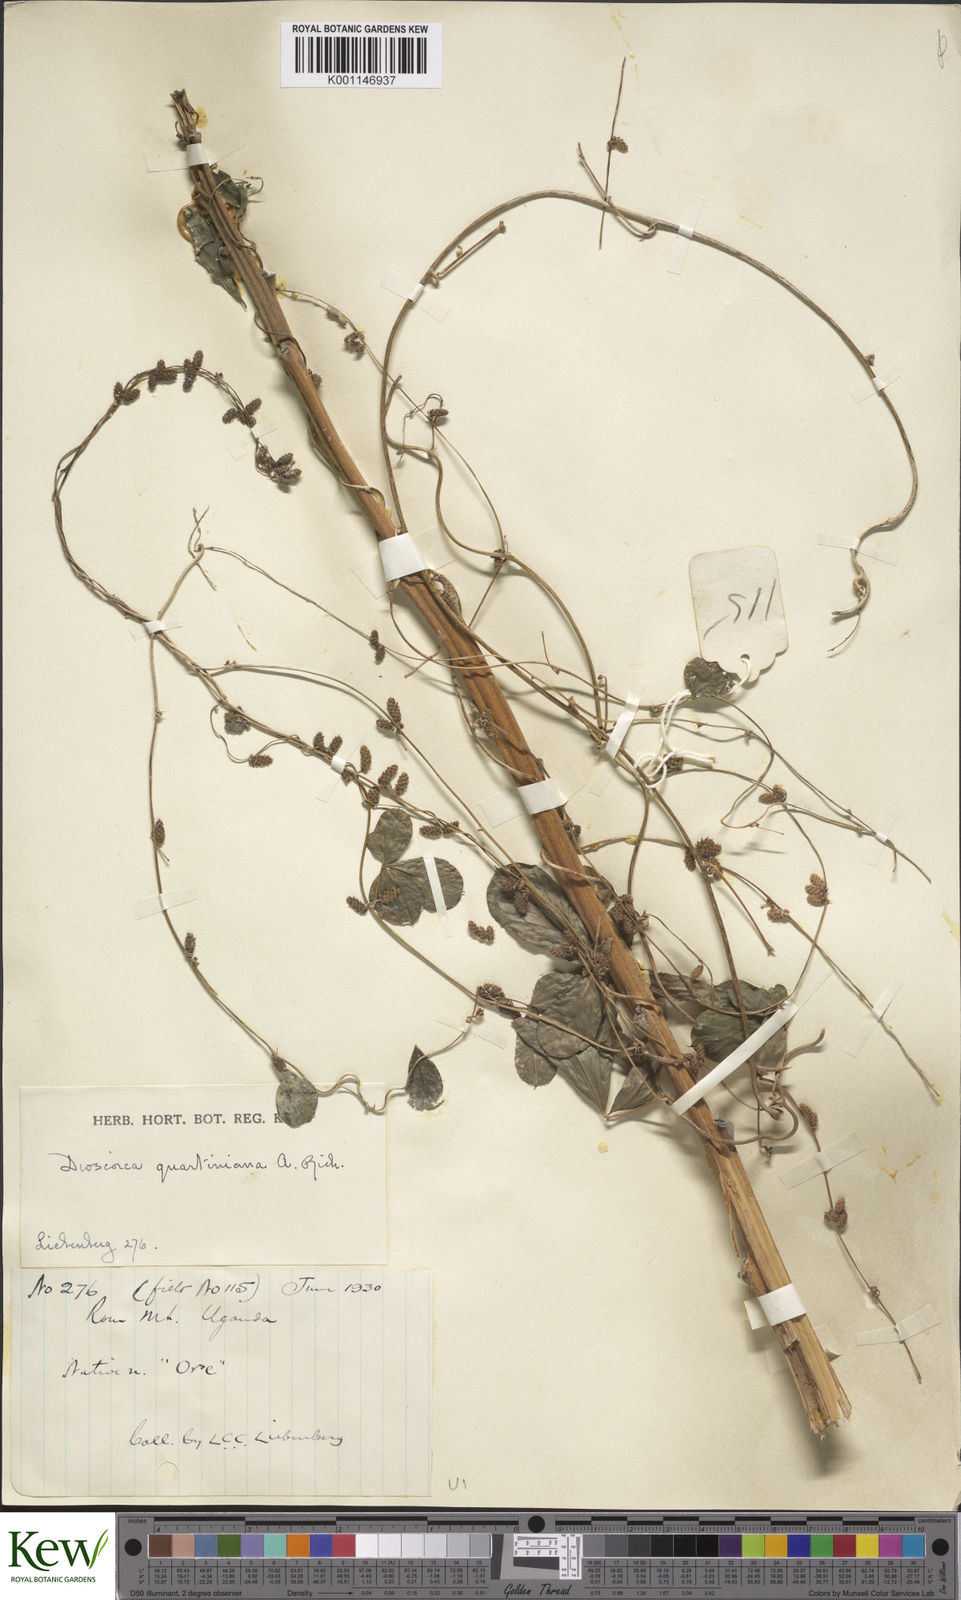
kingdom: Plantae
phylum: Tracheophyta
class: Liliopsida
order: Dioscoreales
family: Dioscoreaceae
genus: Dioscorea
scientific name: Dioscorea quartiniana
